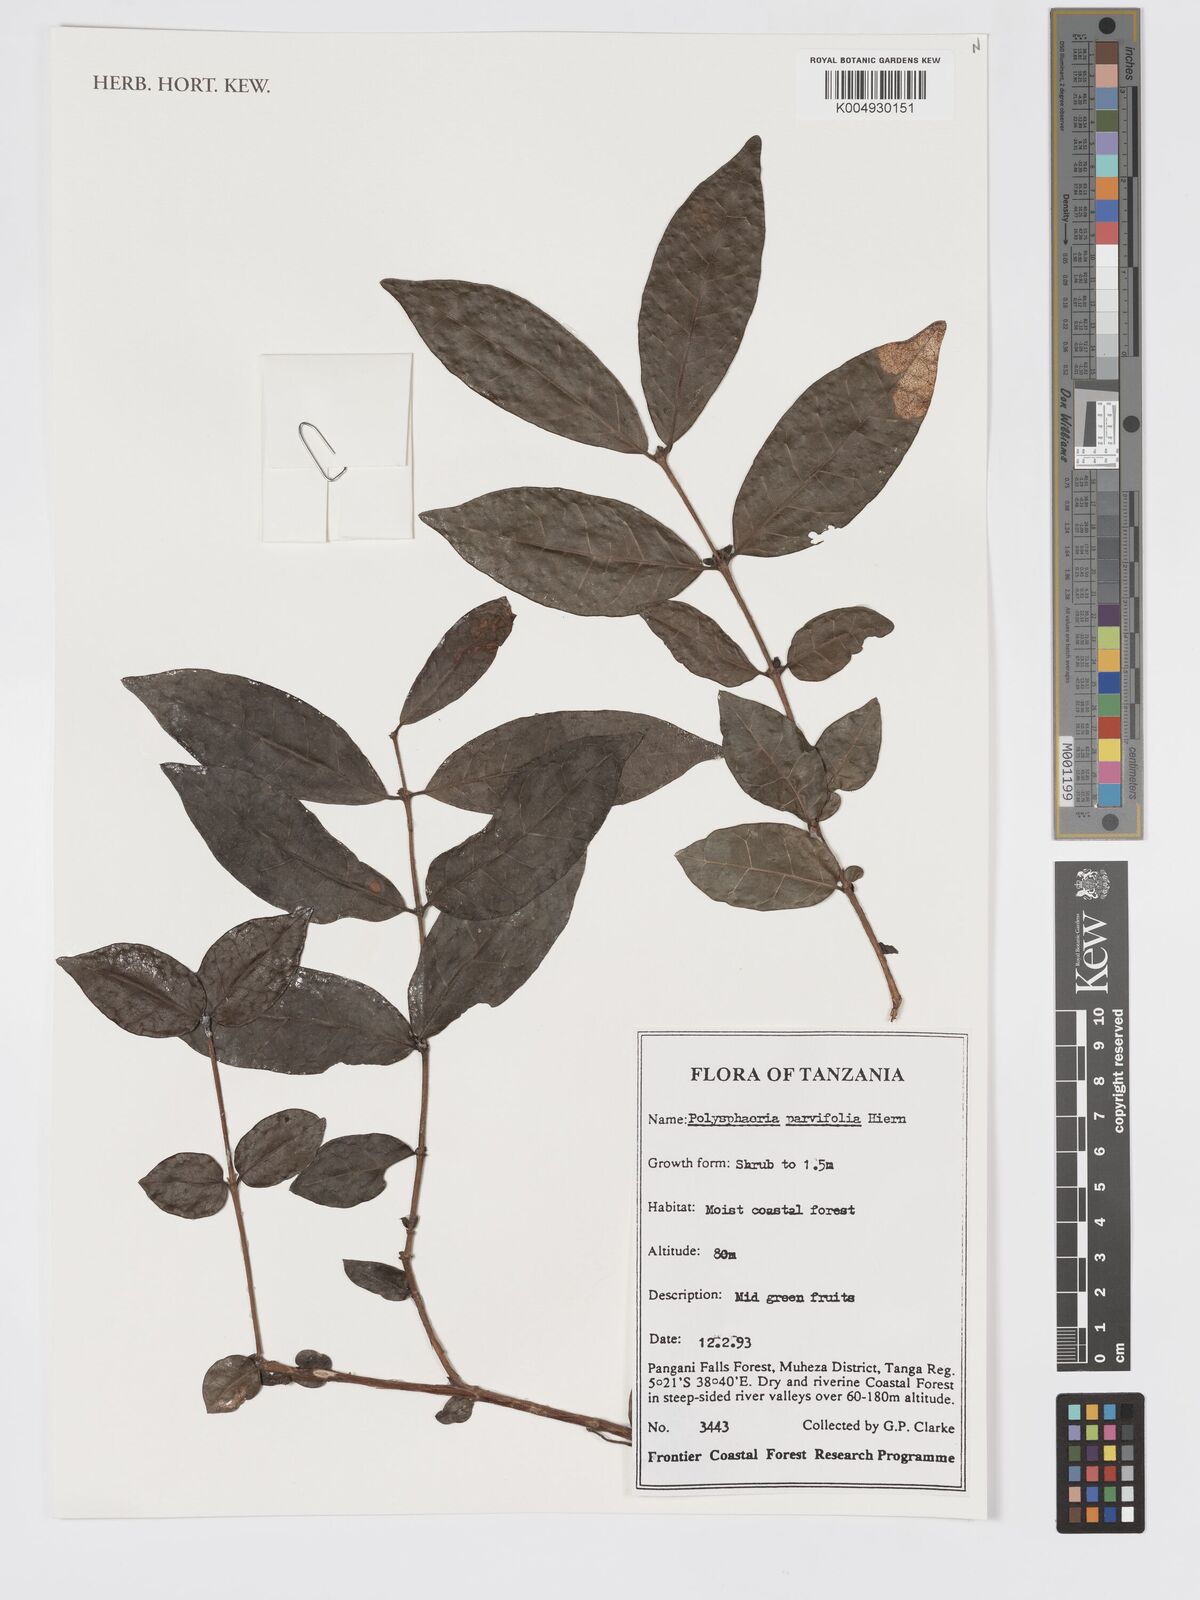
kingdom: Plantae
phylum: Tracheophyta
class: Magnoliopsida
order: Gentianales
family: Rubiaceae
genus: Polysphaeria
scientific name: Polysphaeria parvifolia
